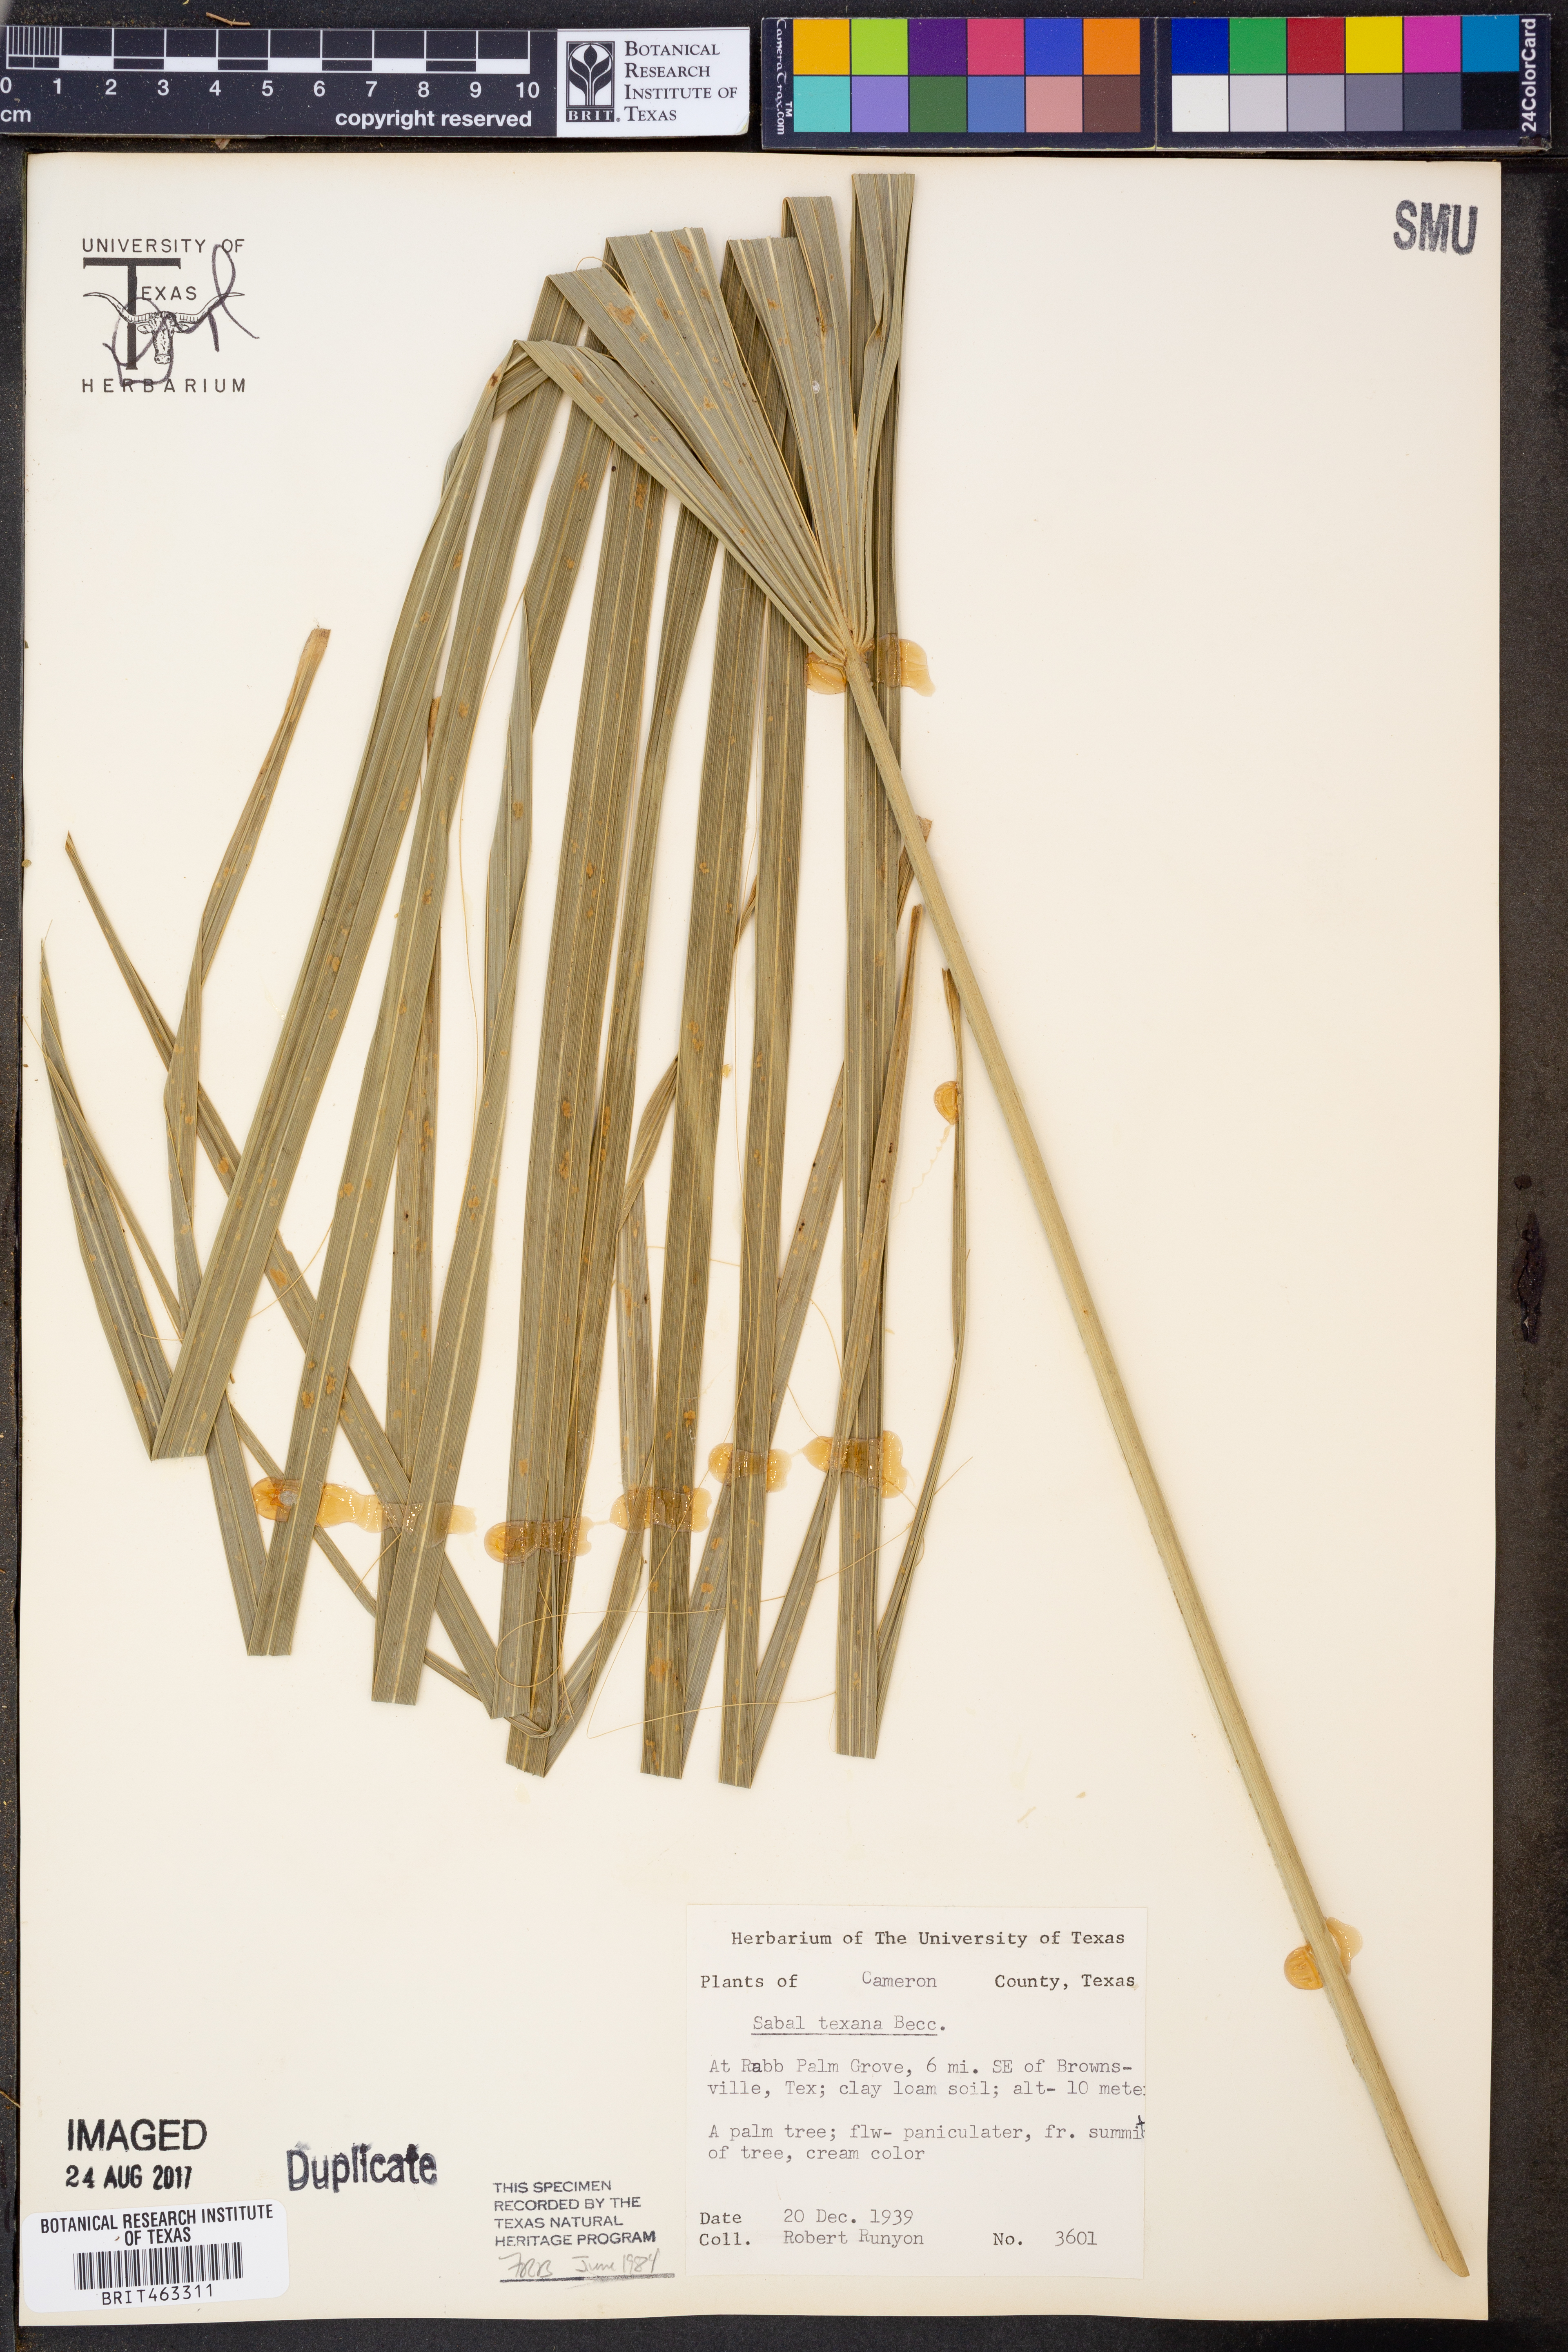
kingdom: Plantae
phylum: Tracheophyta
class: Liliopsida
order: Arecales
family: Arecaceae
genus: Sabal
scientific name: Sabal mexicana
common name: Texas palmetto
